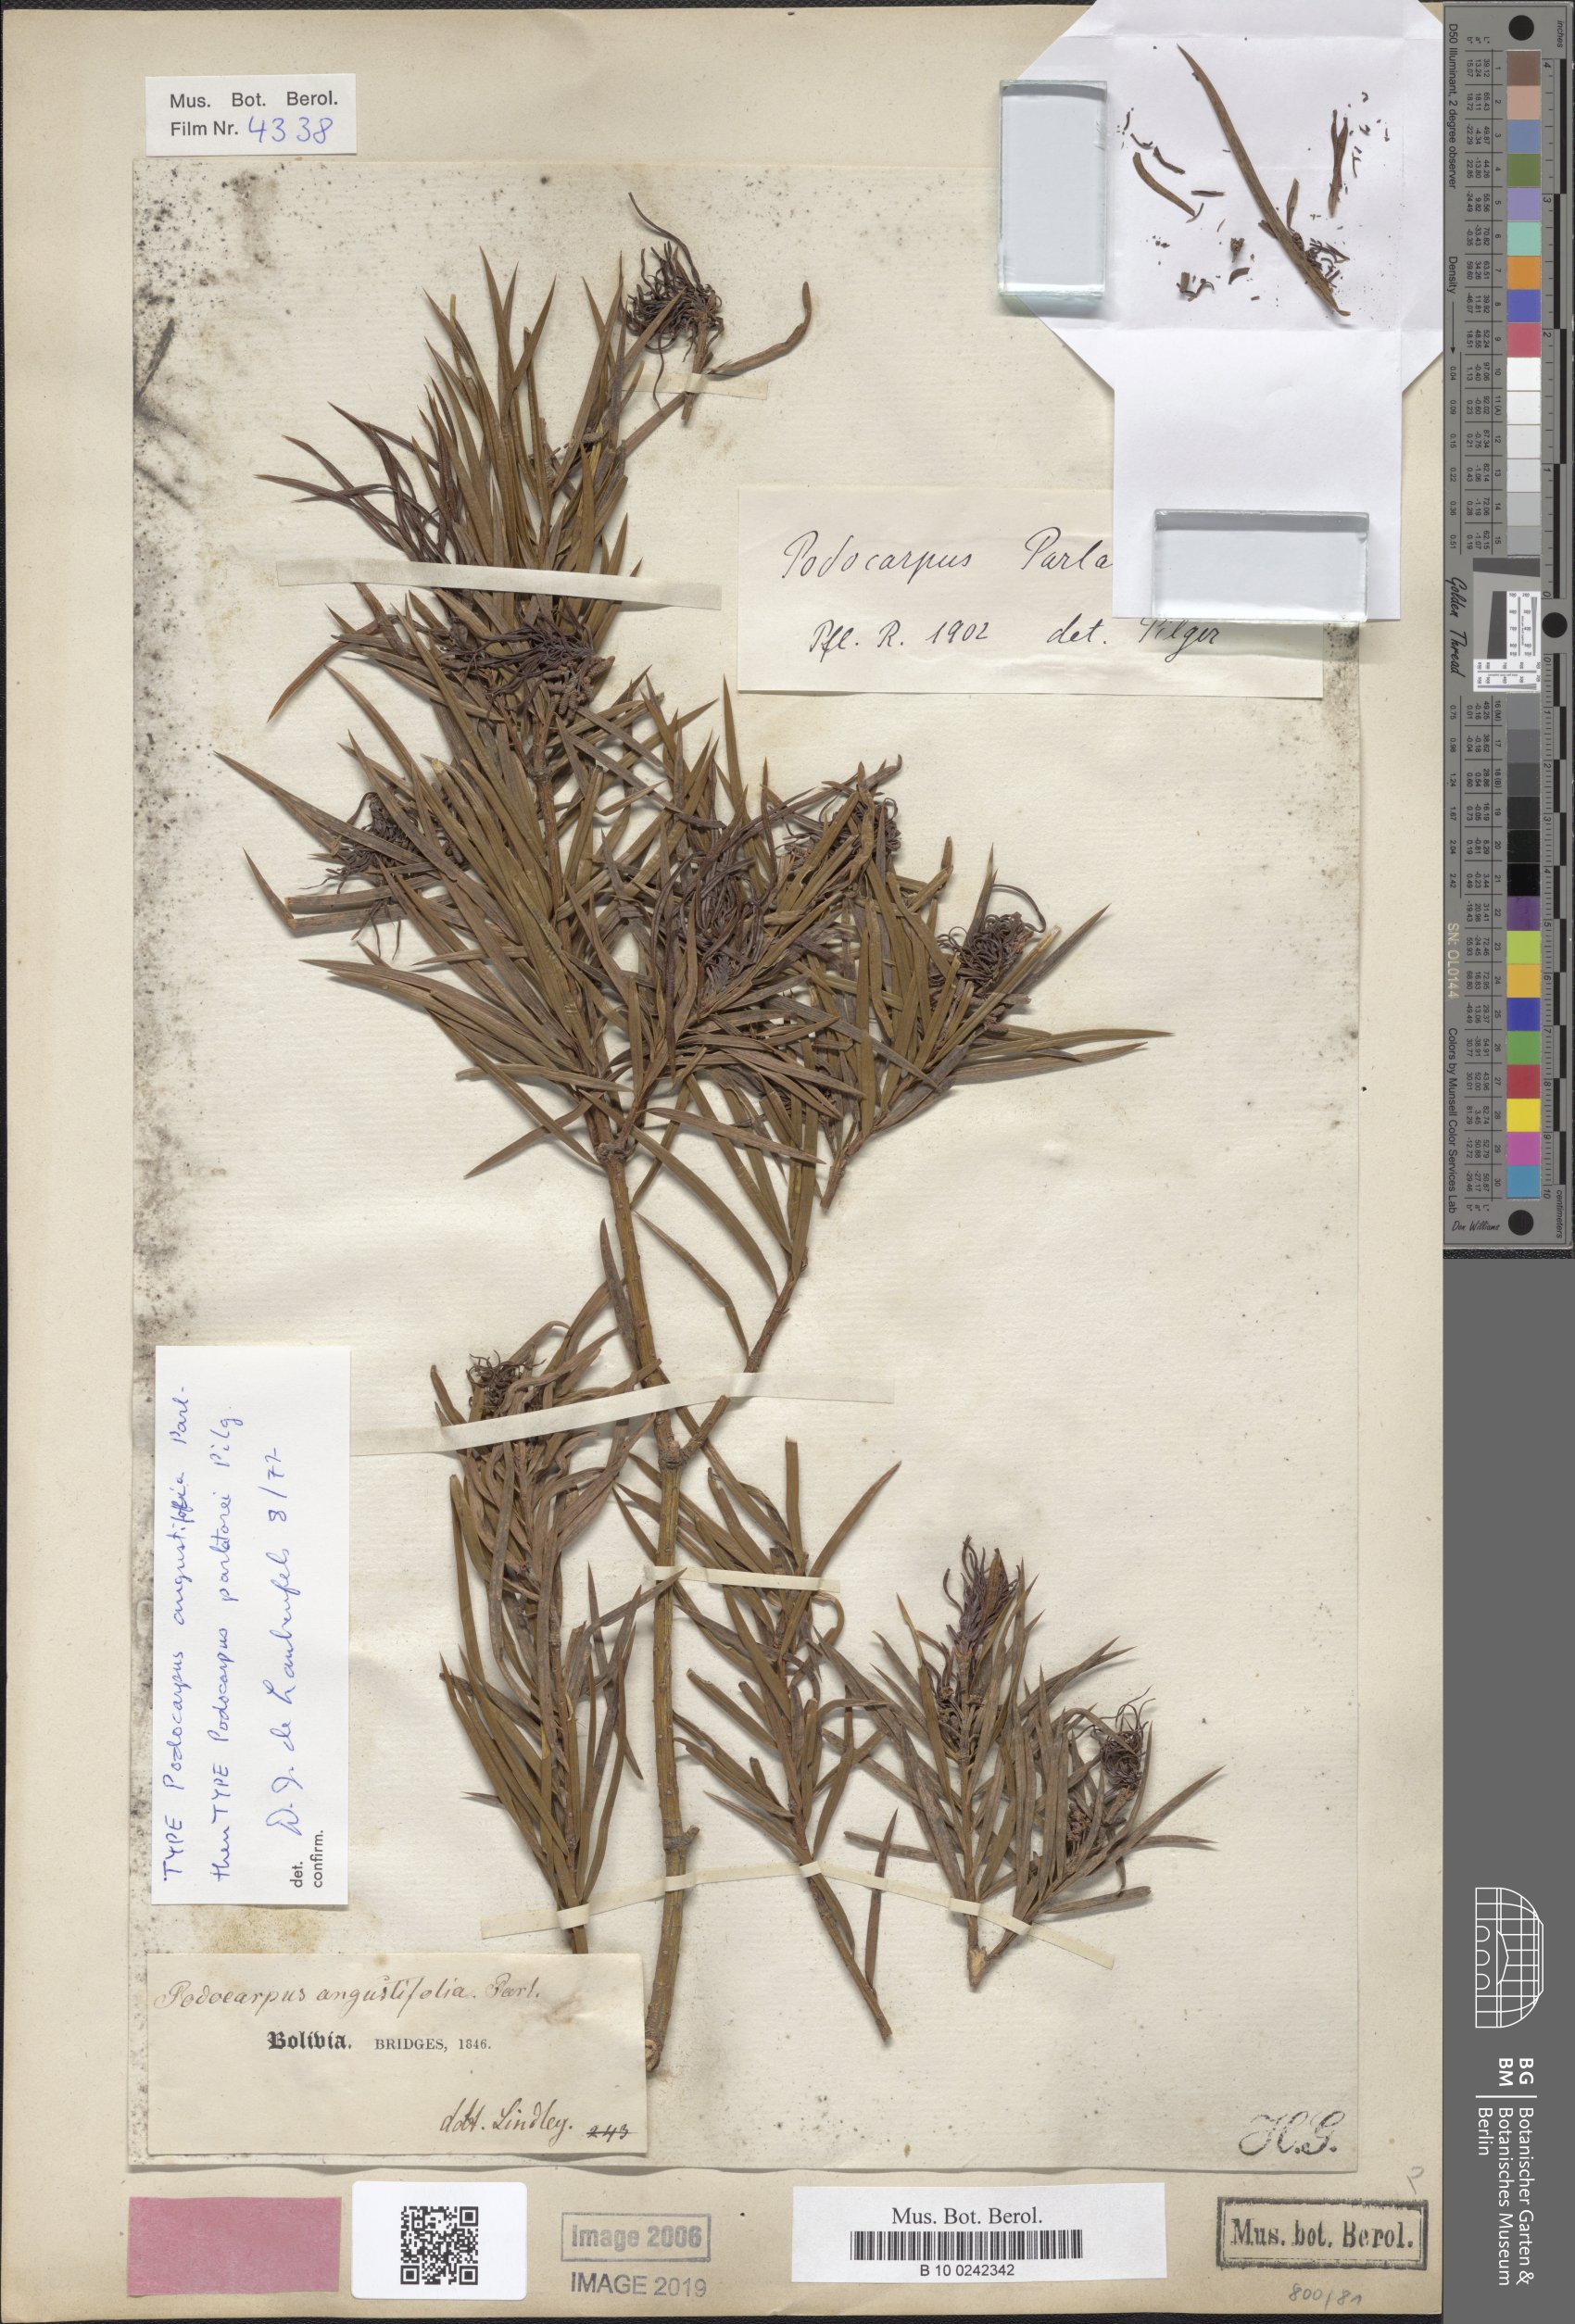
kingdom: Plantae
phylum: Tracheophyta
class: Pinopsida
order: Pinales
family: Podocarpaceae
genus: Podocarpus
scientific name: Podocarpus parlatorei
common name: Pino blanco
